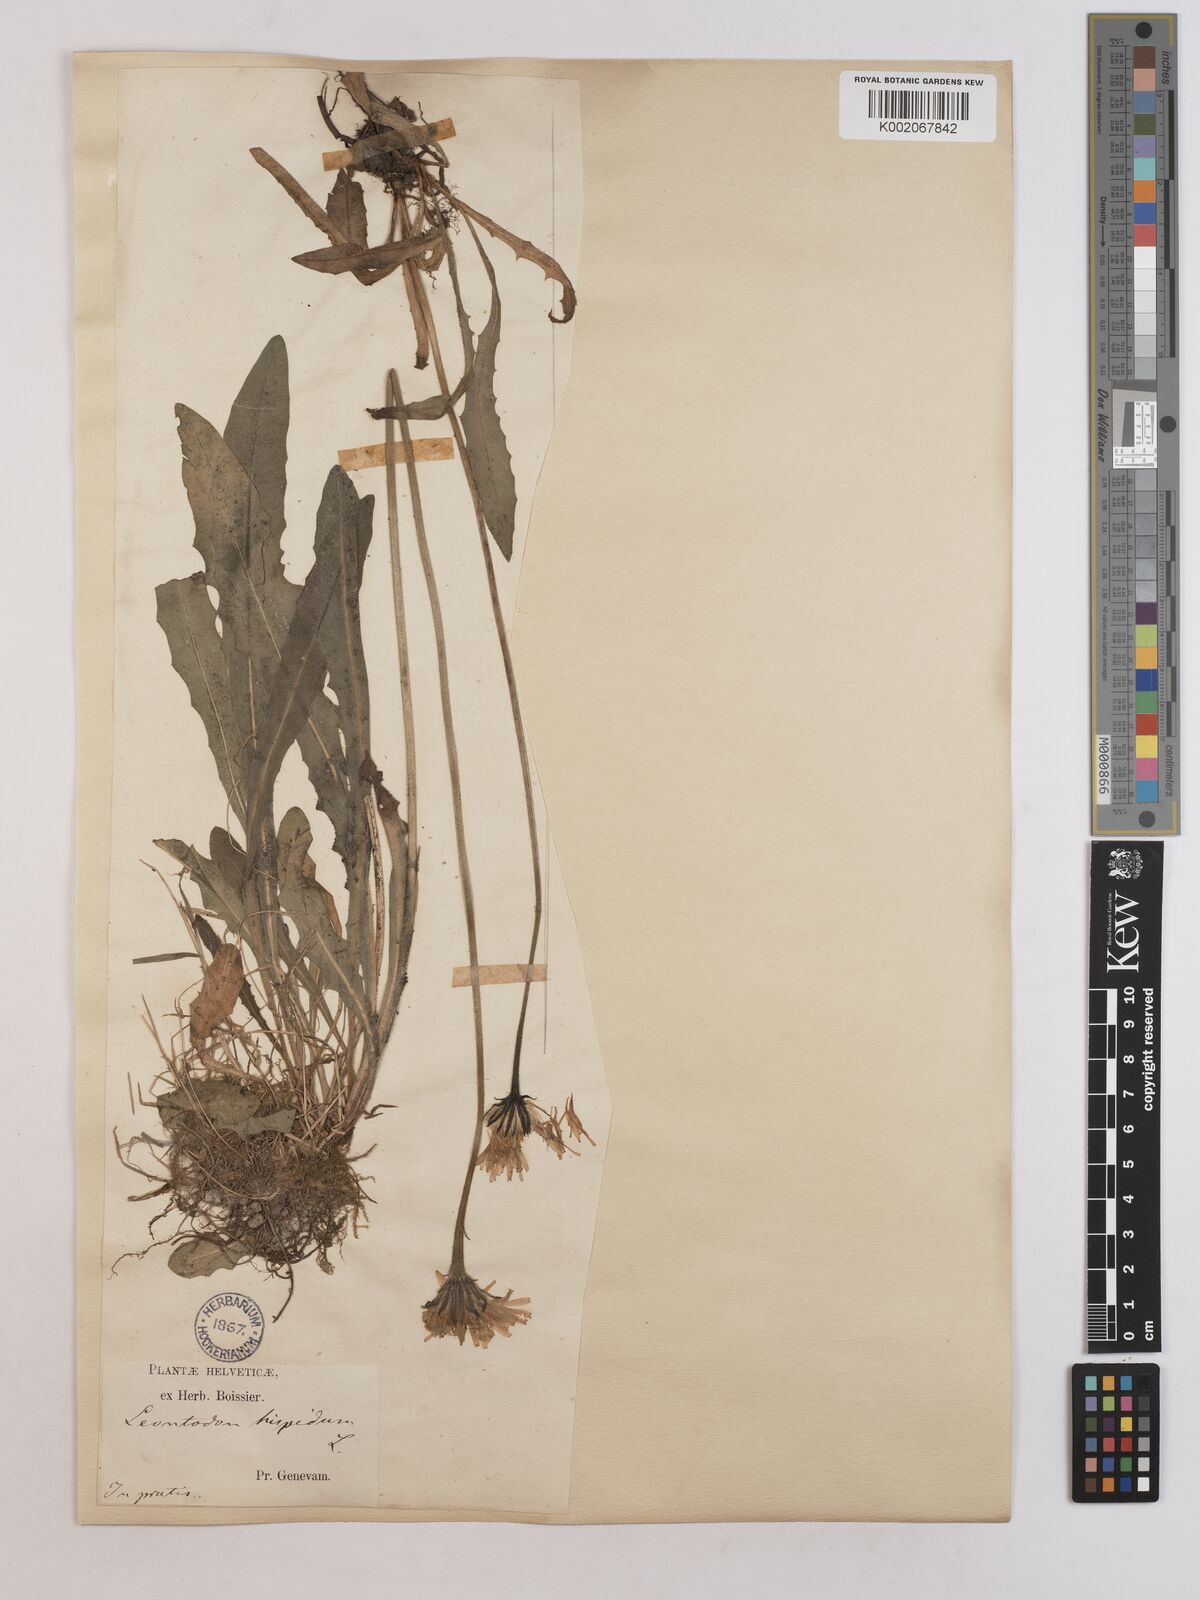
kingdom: Plantae
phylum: Tracheophyta
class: Magnoliopsida
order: Asterales
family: Asteraceae
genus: Leontodon
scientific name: Leontodon
